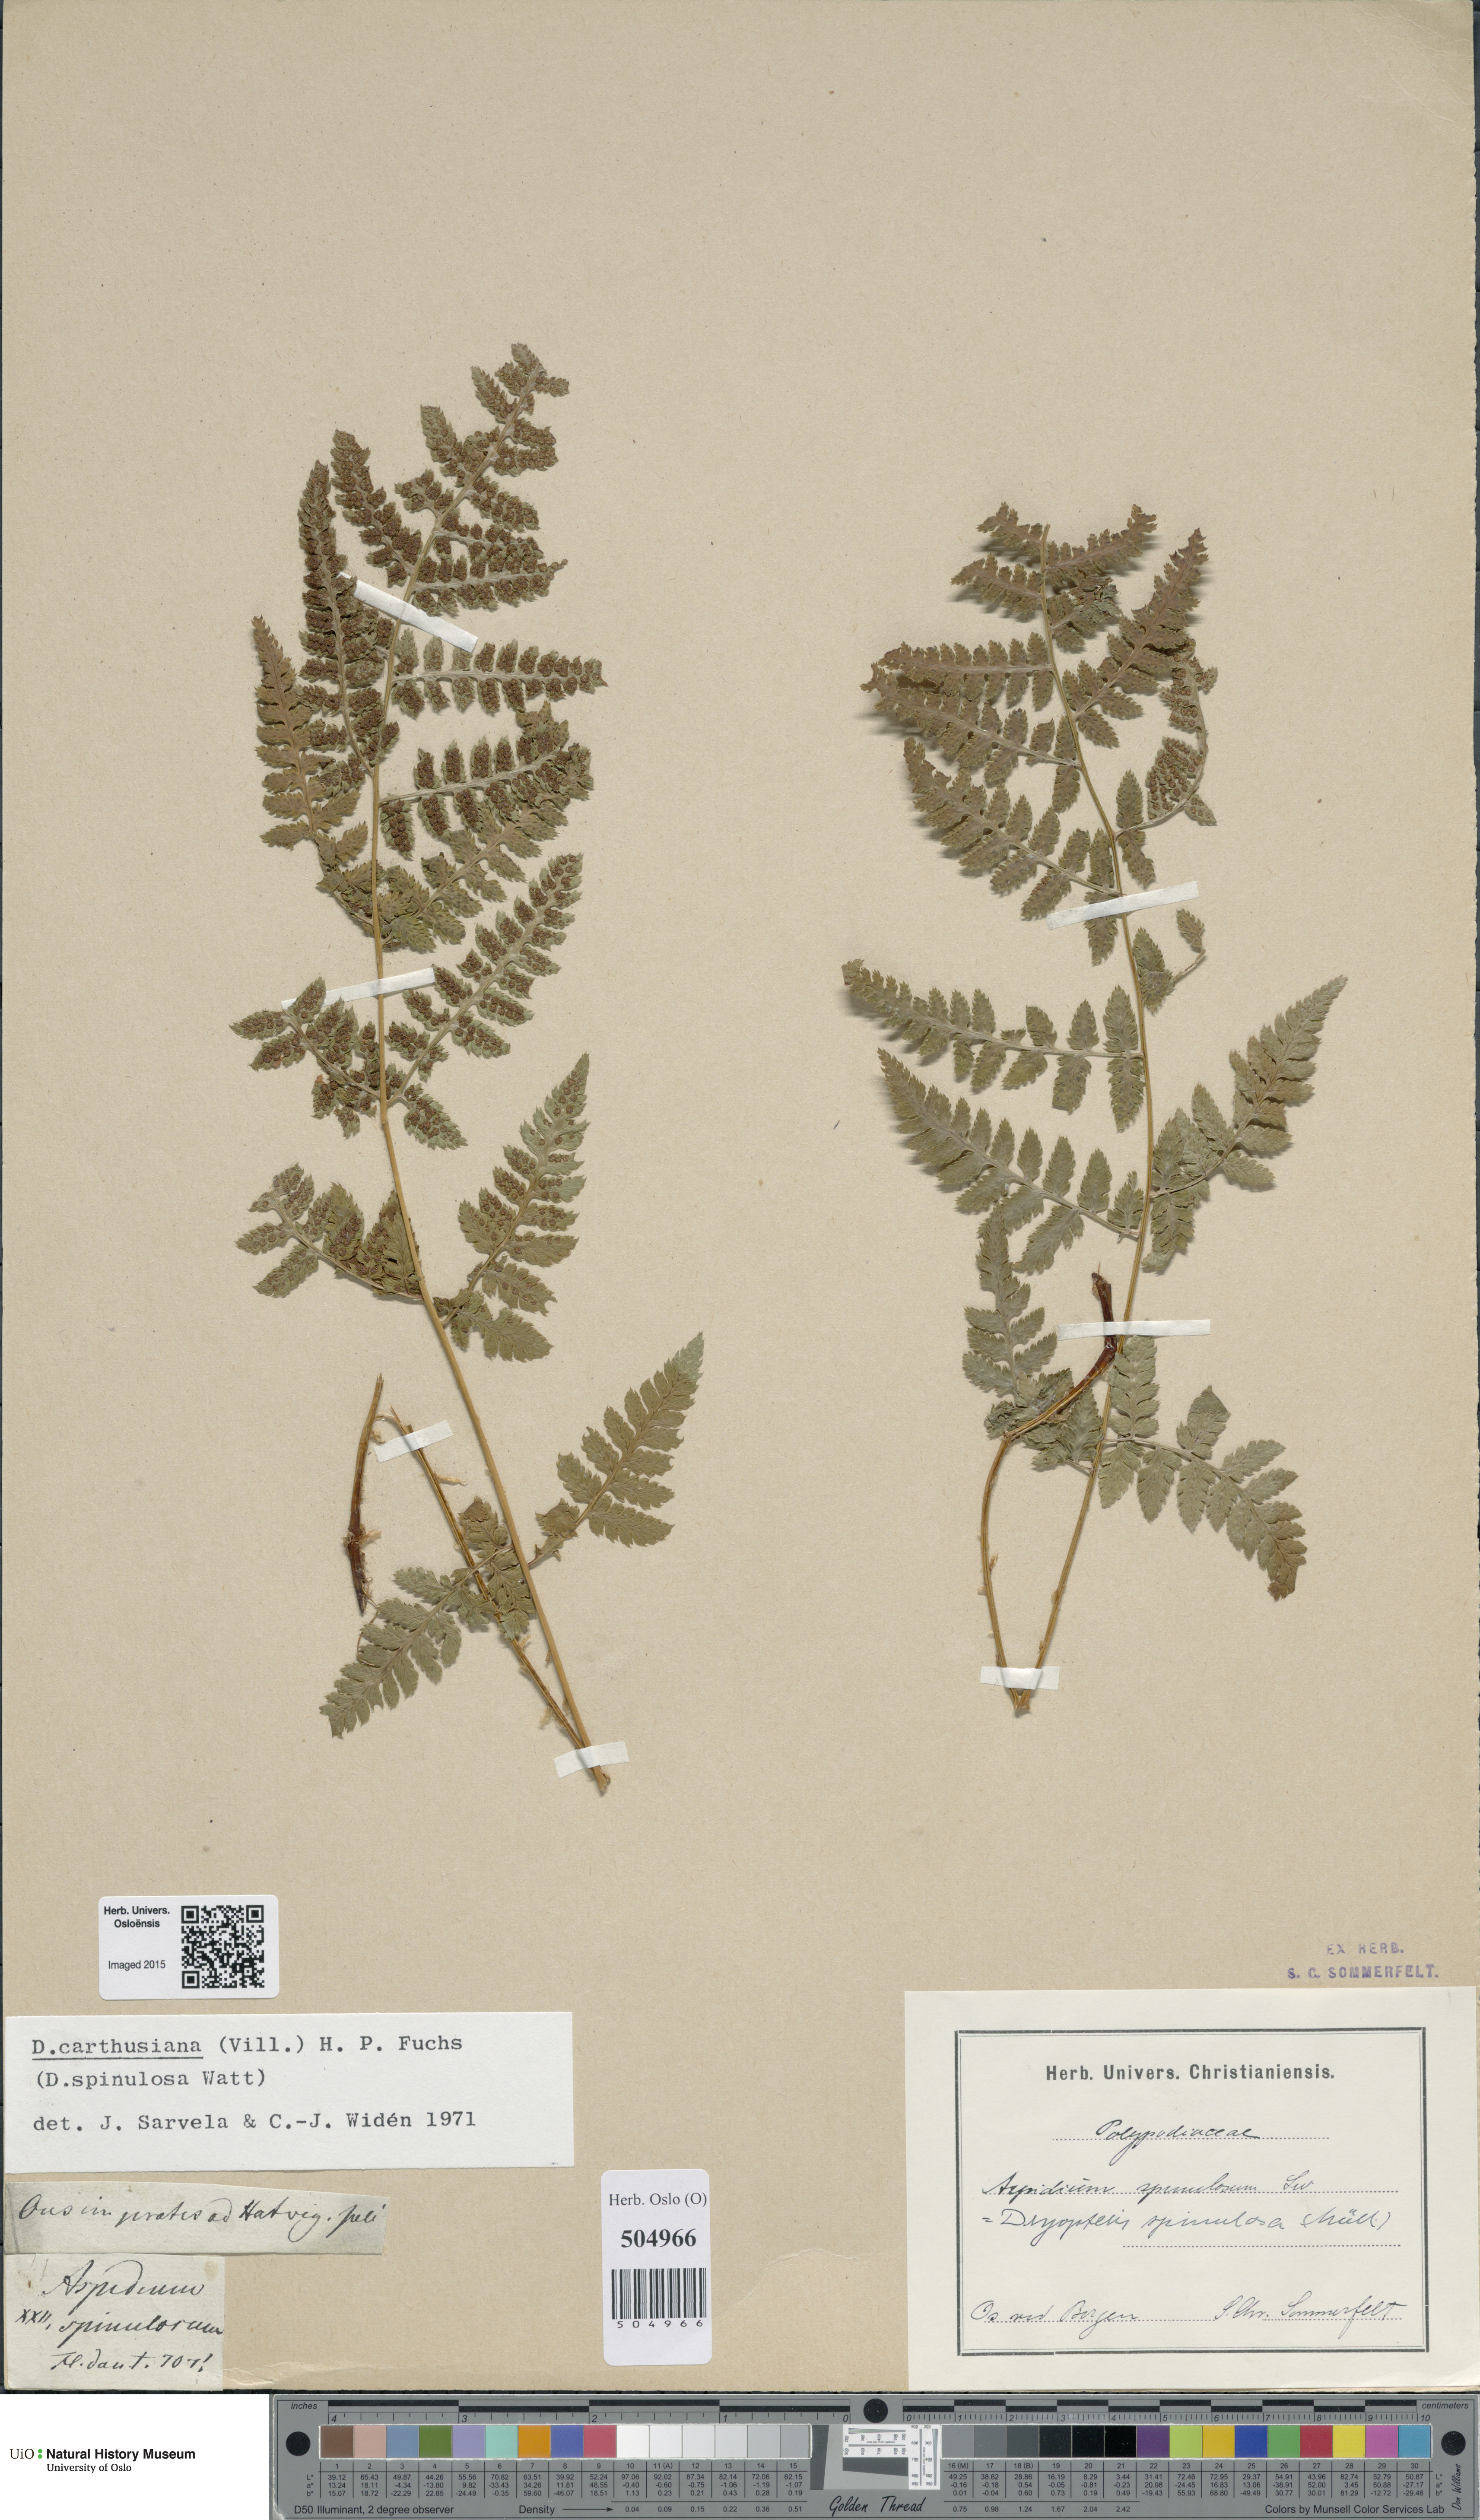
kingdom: Plantae
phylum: Tracheophyta
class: Polypodiopsida
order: Polypodiales
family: Dryopteridaceae
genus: Dryopteris
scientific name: Dryopteris carthusiana
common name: Narrow buckler-fern
